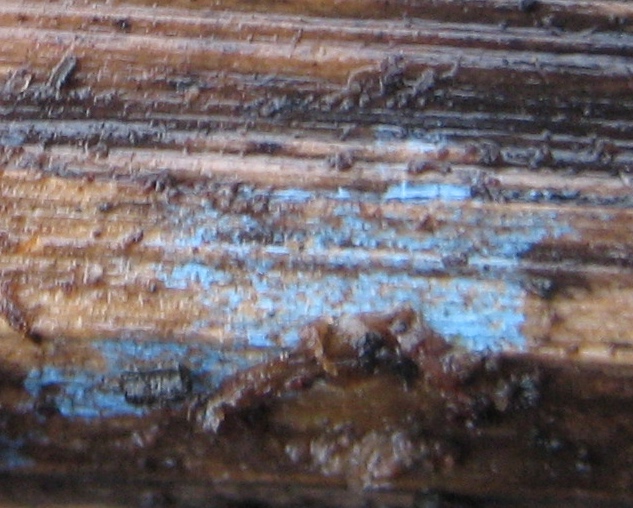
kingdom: Fungi
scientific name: Fungi
